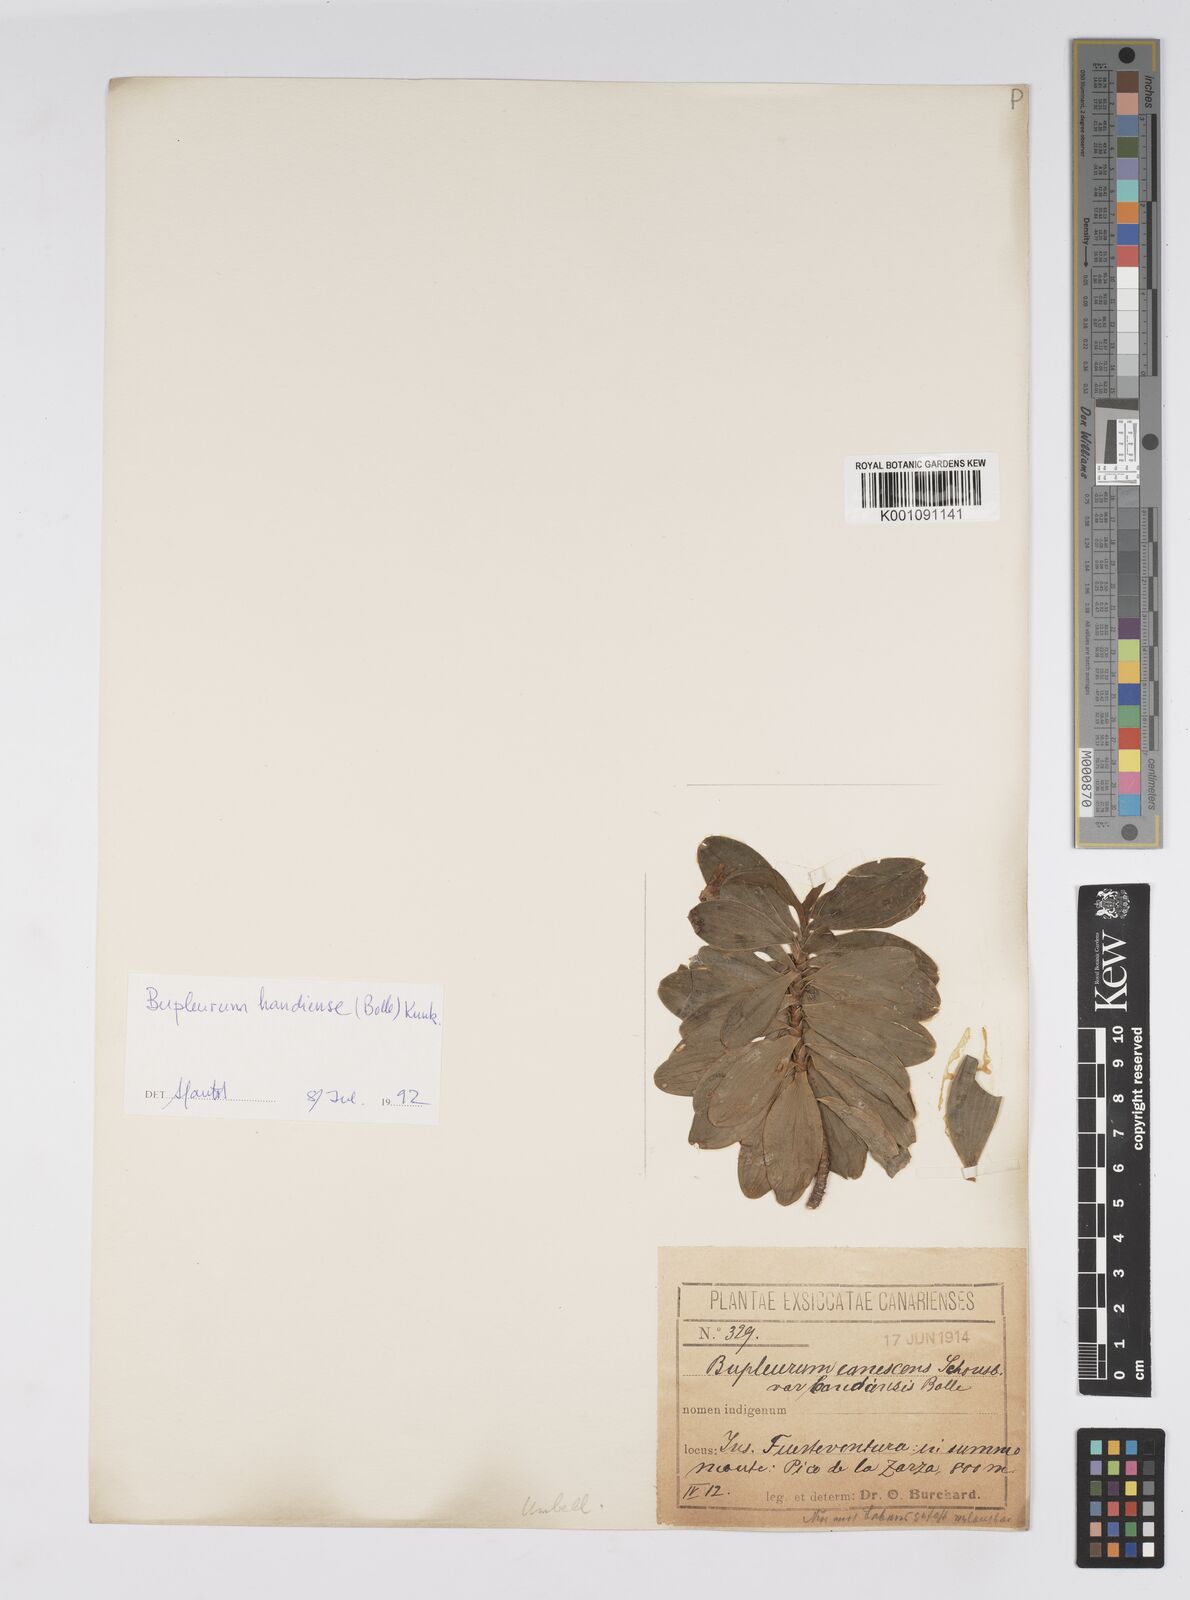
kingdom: Plantae
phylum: Tracheophyta
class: Magnoliopsida
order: Apiales
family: Apiaceae
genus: Bupleurum
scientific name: Bupleurum canescens
